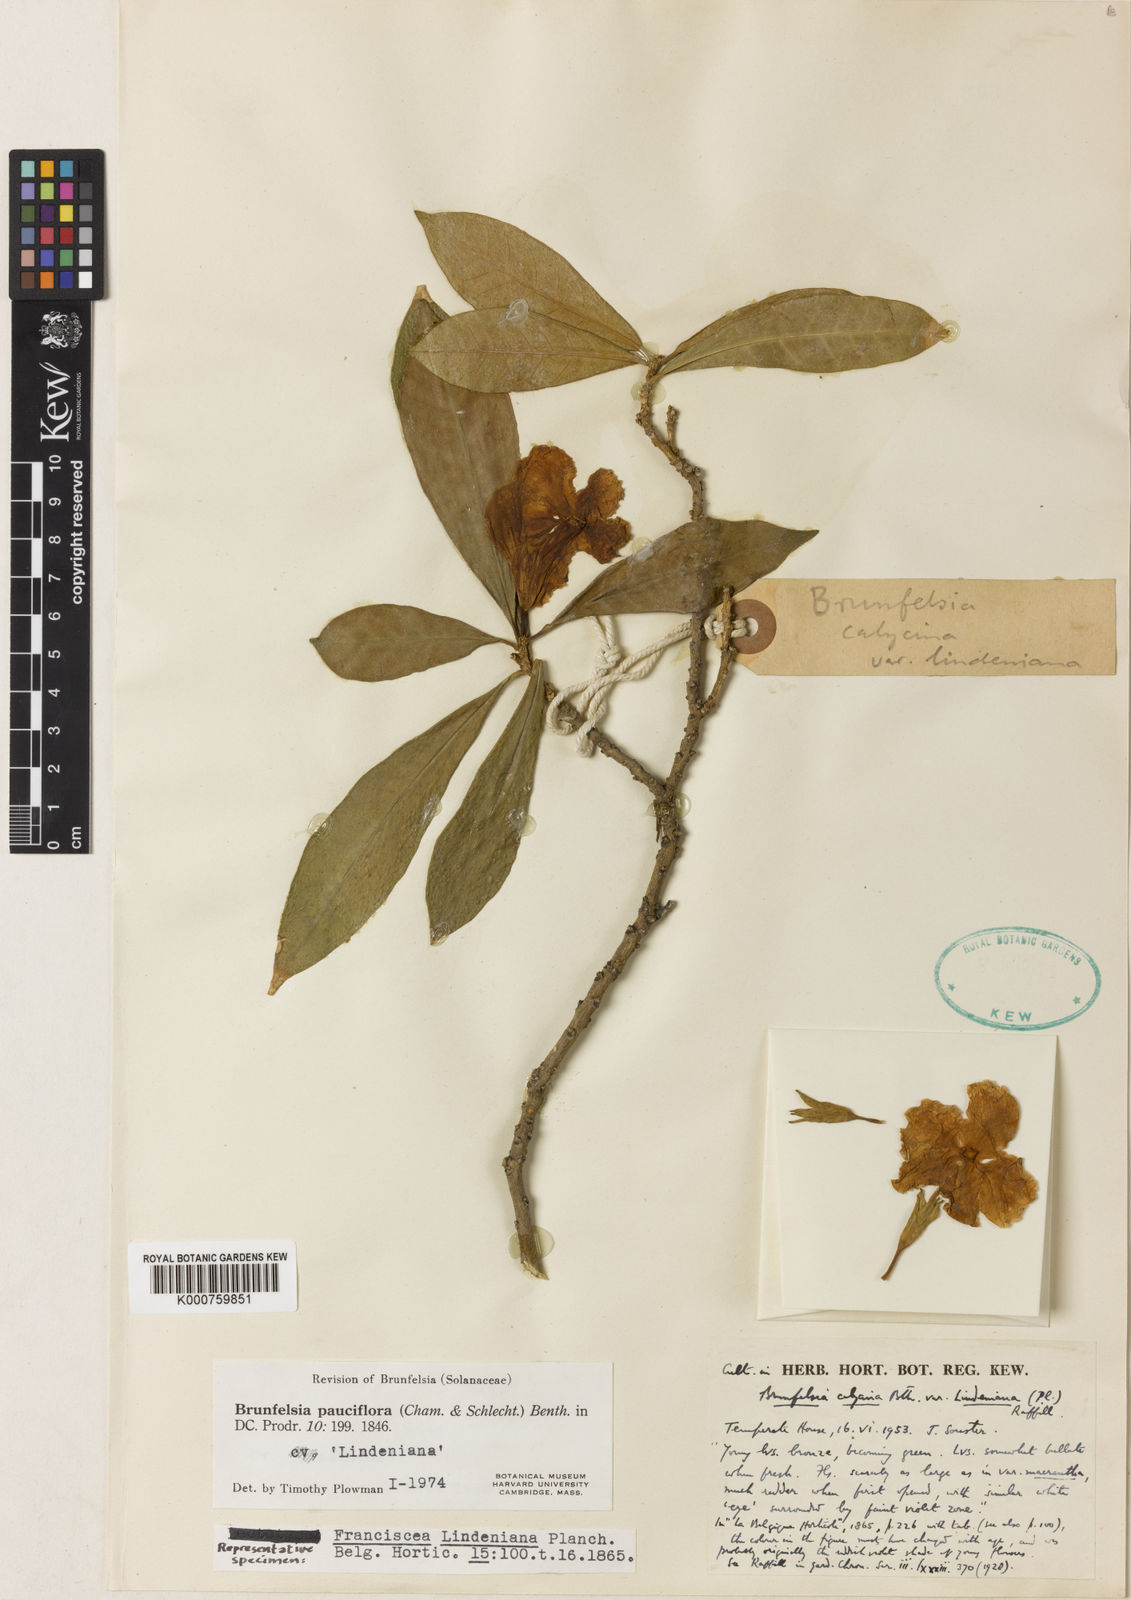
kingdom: Plantae
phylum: Tracheophyta
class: Magnoliopsida
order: Solanales
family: Solanaceae
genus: Brunfelsia
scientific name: Brunfelsia pauciflora
